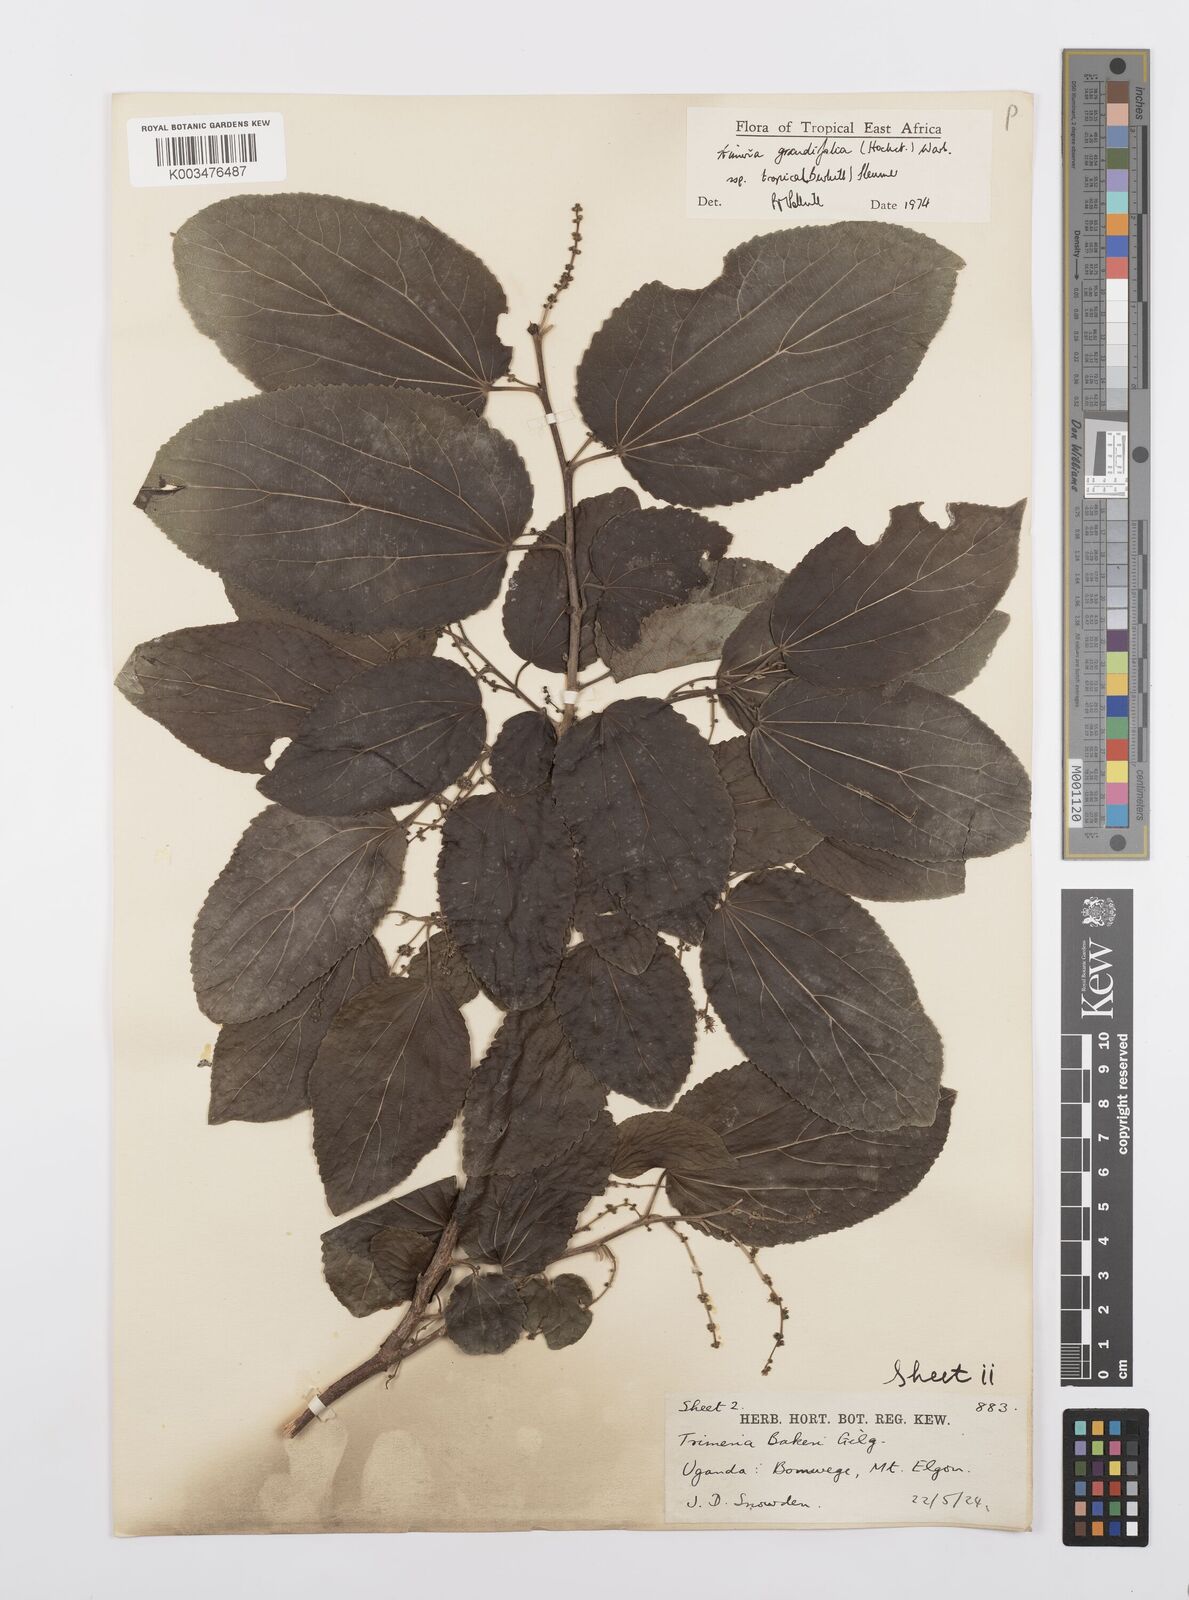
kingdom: Plantae
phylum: Tracheophyta
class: Magnoliopsida
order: Malpighiales
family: Salicaceae
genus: Trimeria
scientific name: Trimeria grandifolia
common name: Wild mulberry
